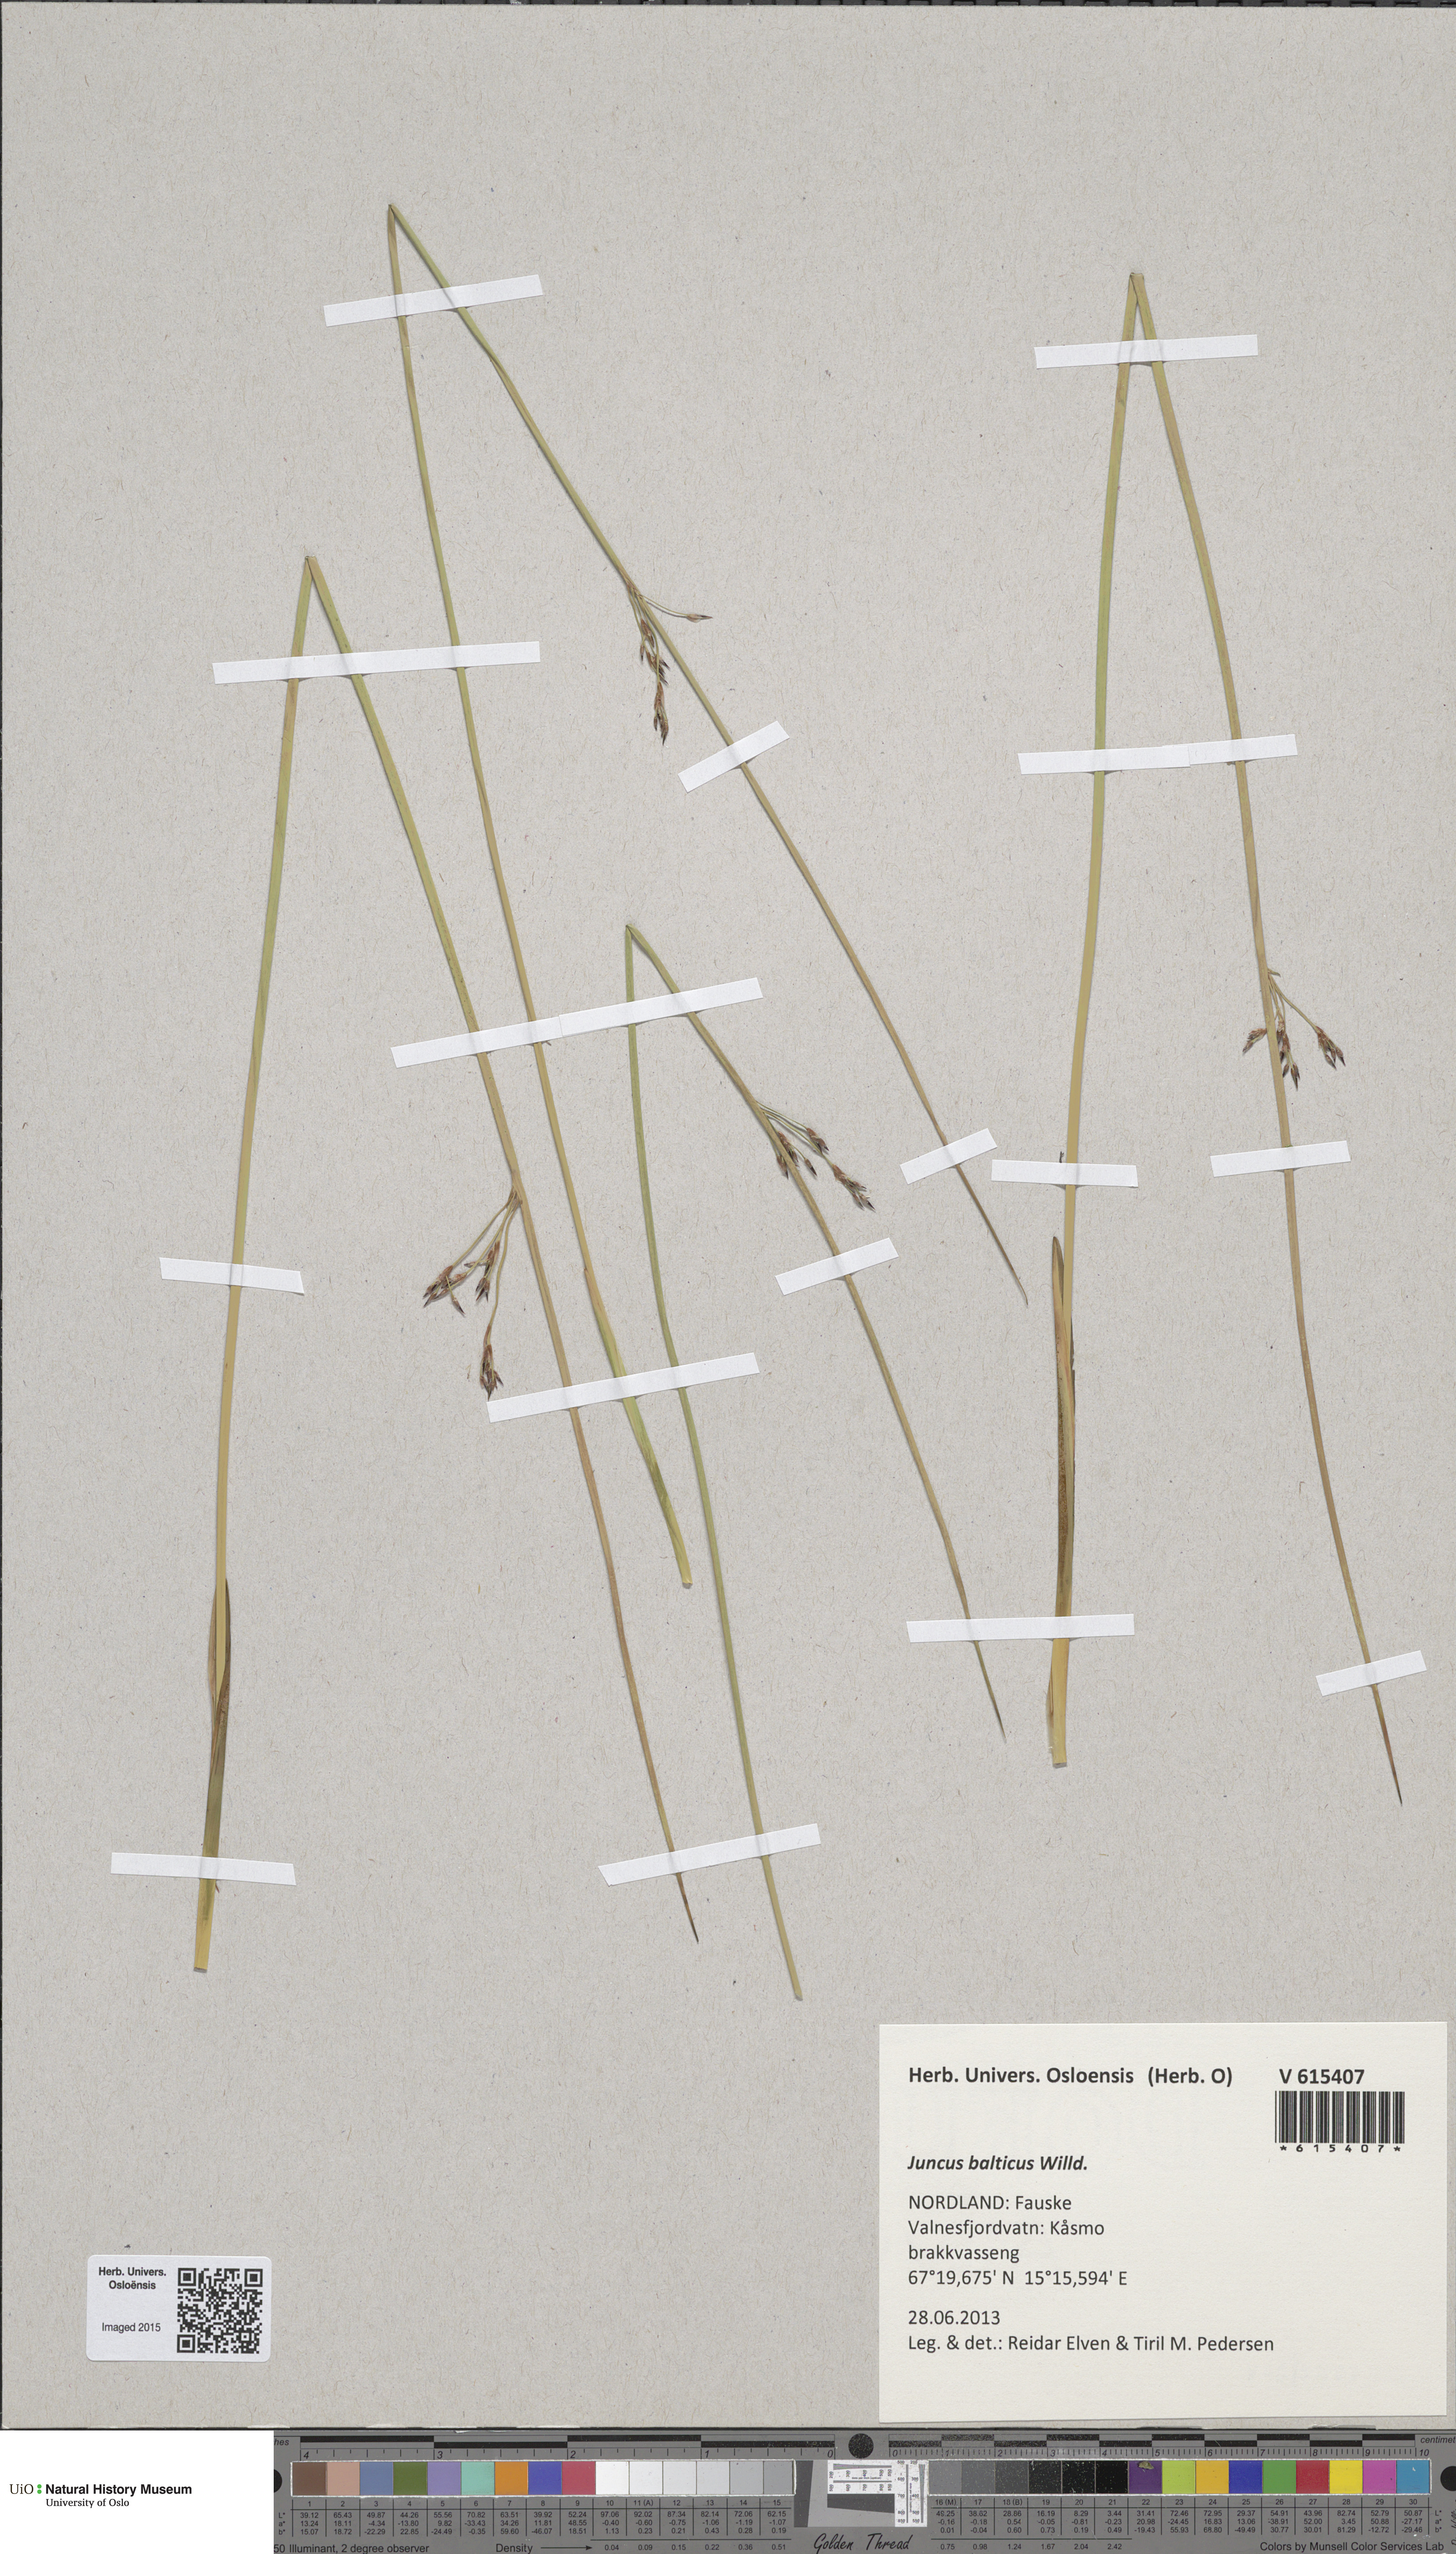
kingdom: Plantae
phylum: Tracheophyta
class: Liliopsida
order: Poales
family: Juncaceae
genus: Juncus
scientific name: Juncus balticus
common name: Baltic rush
